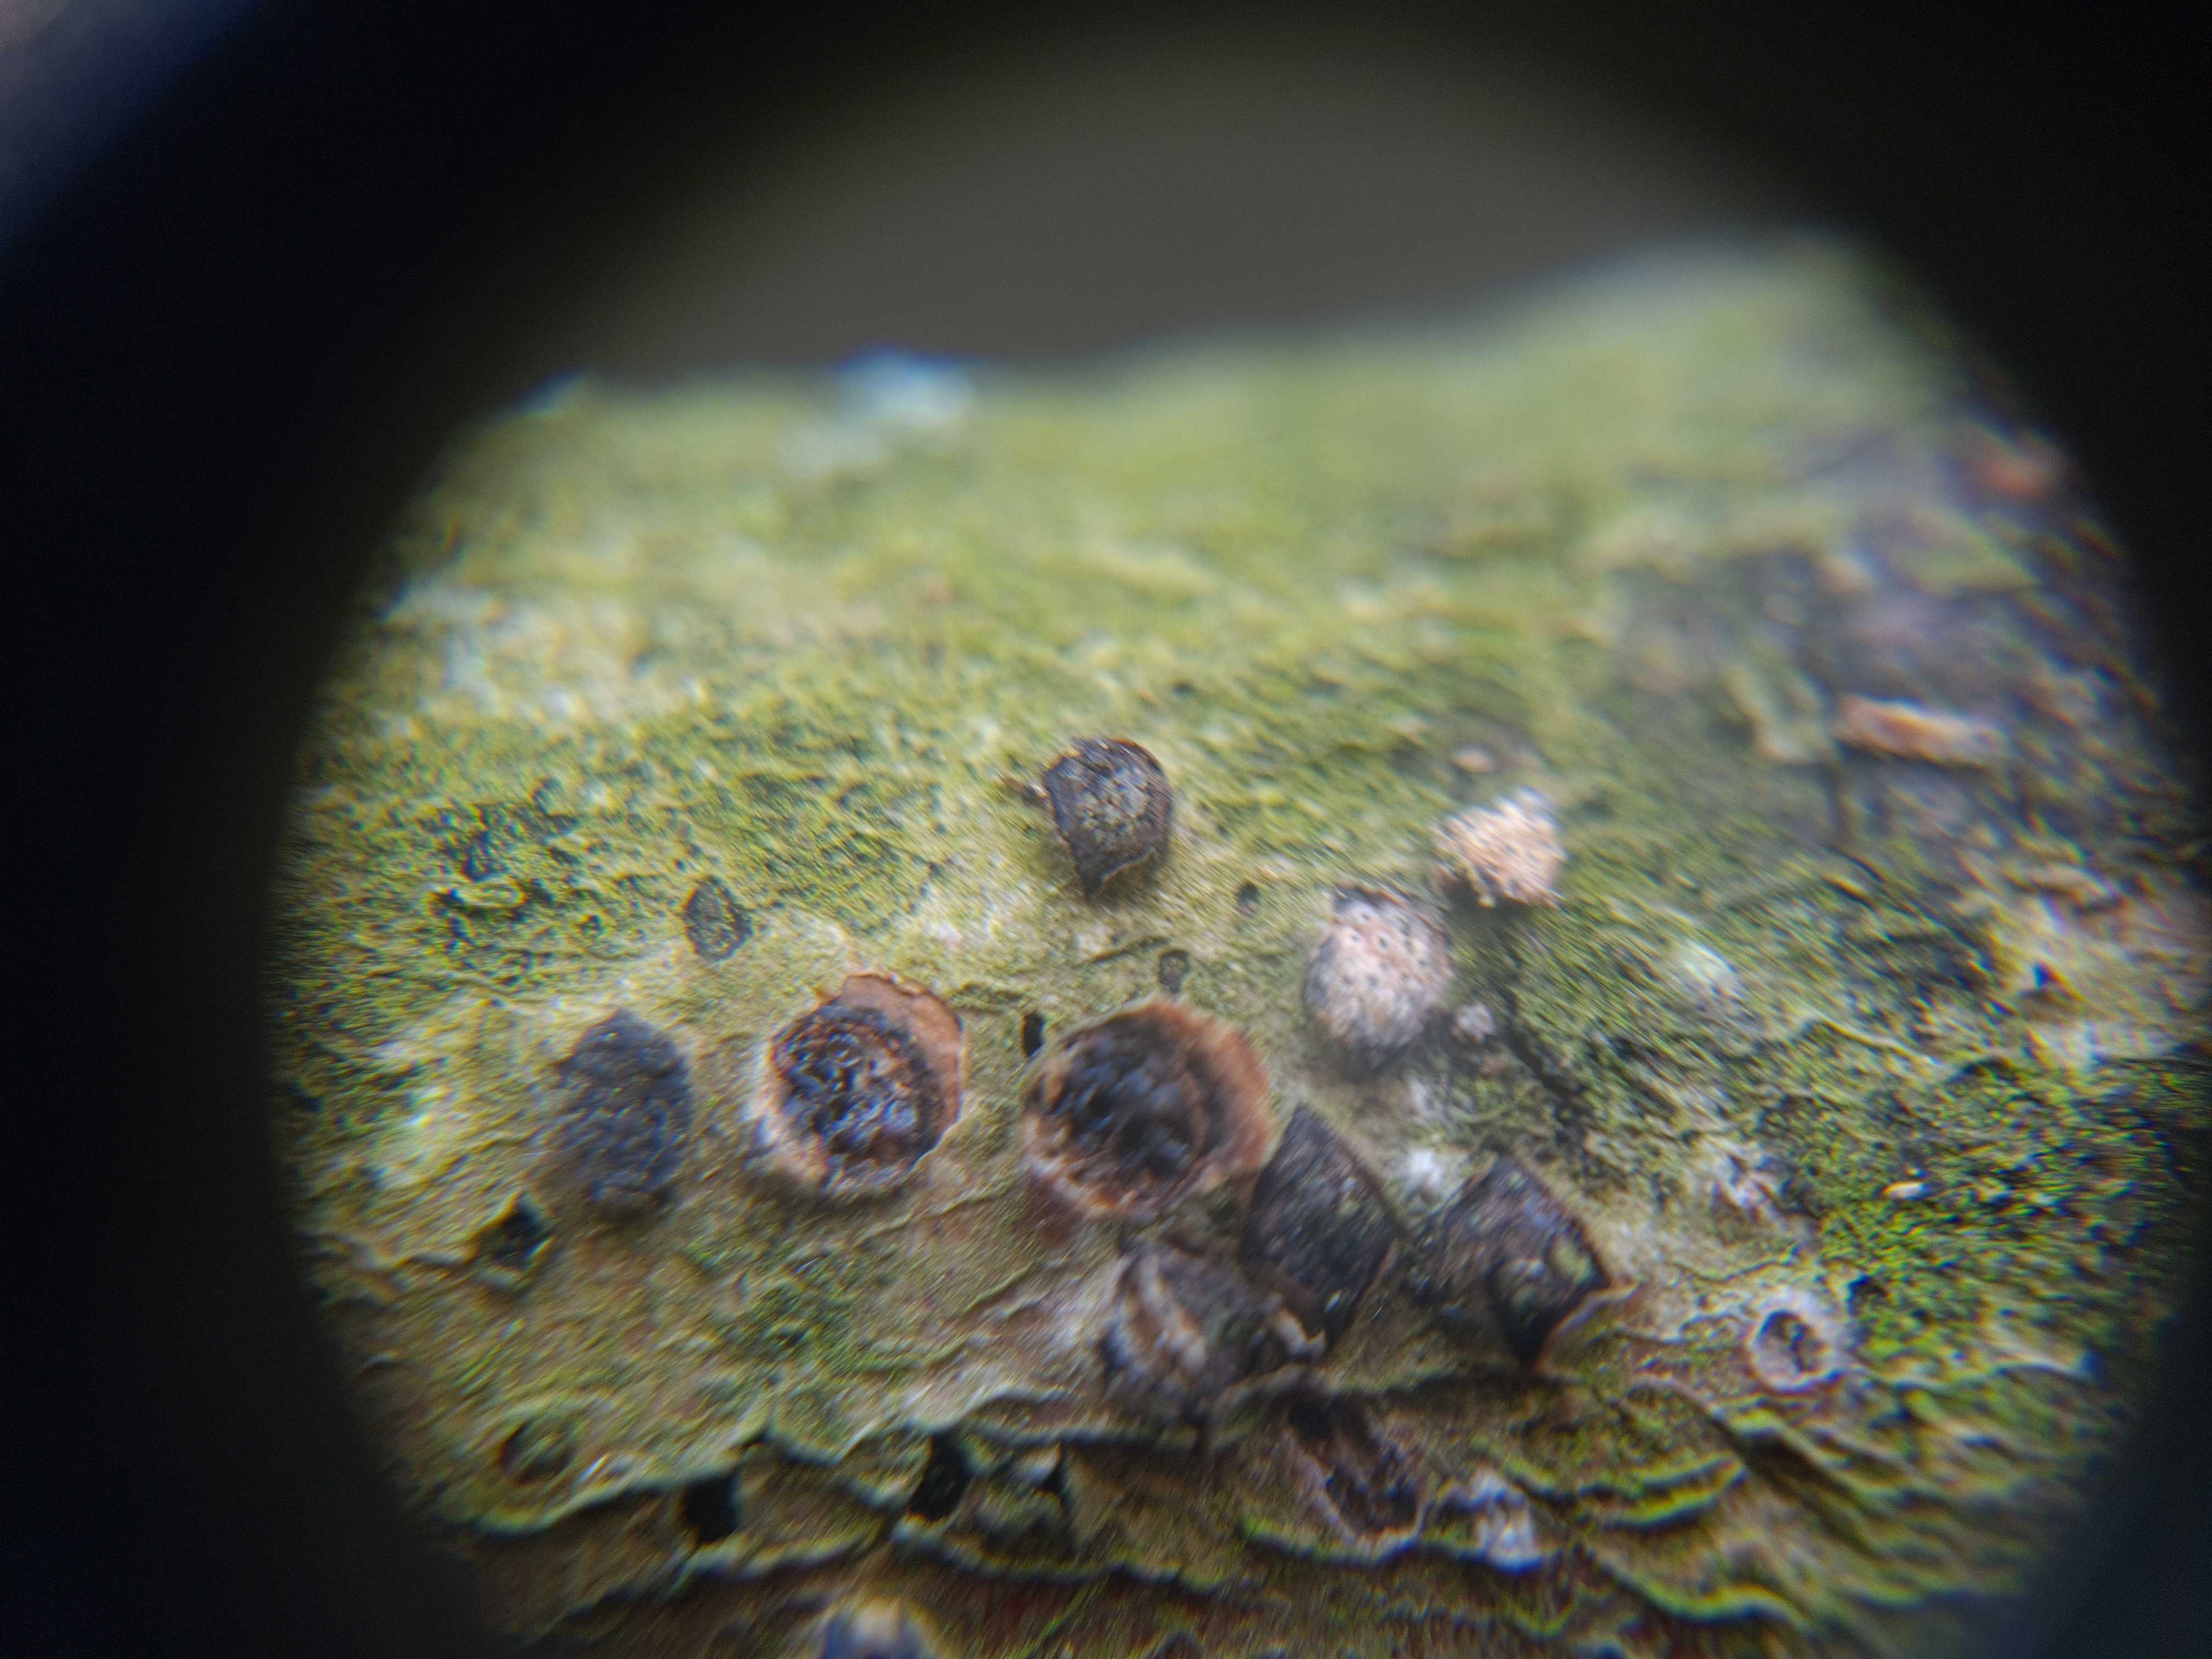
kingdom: Fungi
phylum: Ascomycota
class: Sordariomycetes
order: Xylariales
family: Diatrypaceae
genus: Diatrypella
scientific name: Diatrypella quercina
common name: ege-kulskorpe
